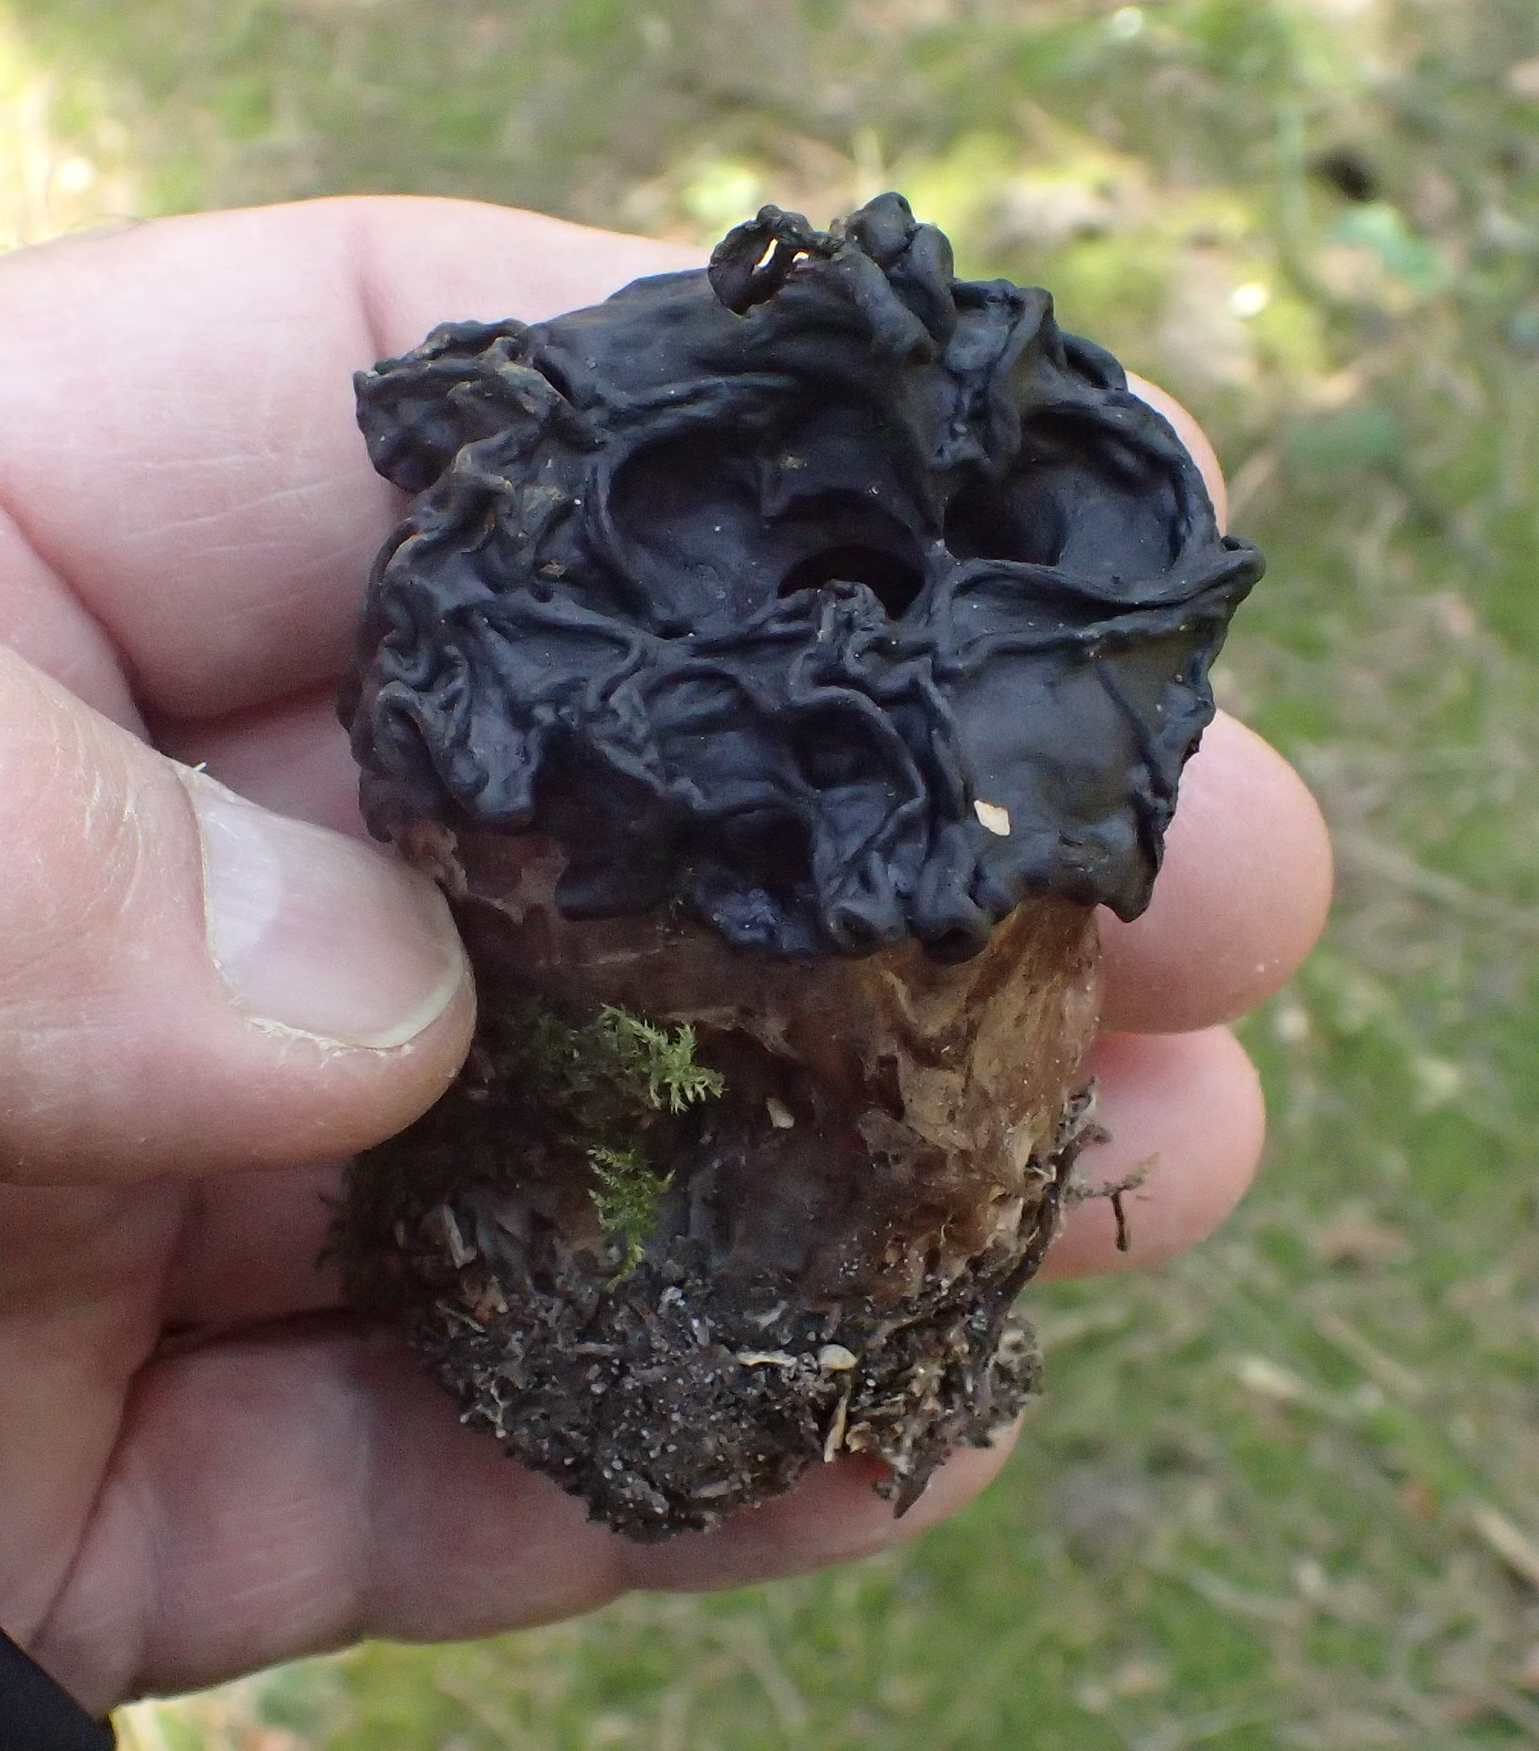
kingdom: Fungi
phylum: Ascomycota
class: Pezizomycetes
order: Pezizales
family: Discinaceae
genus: Gyromitra
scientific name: Gyromitra gigas
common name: kæmpe-stenmorkel
